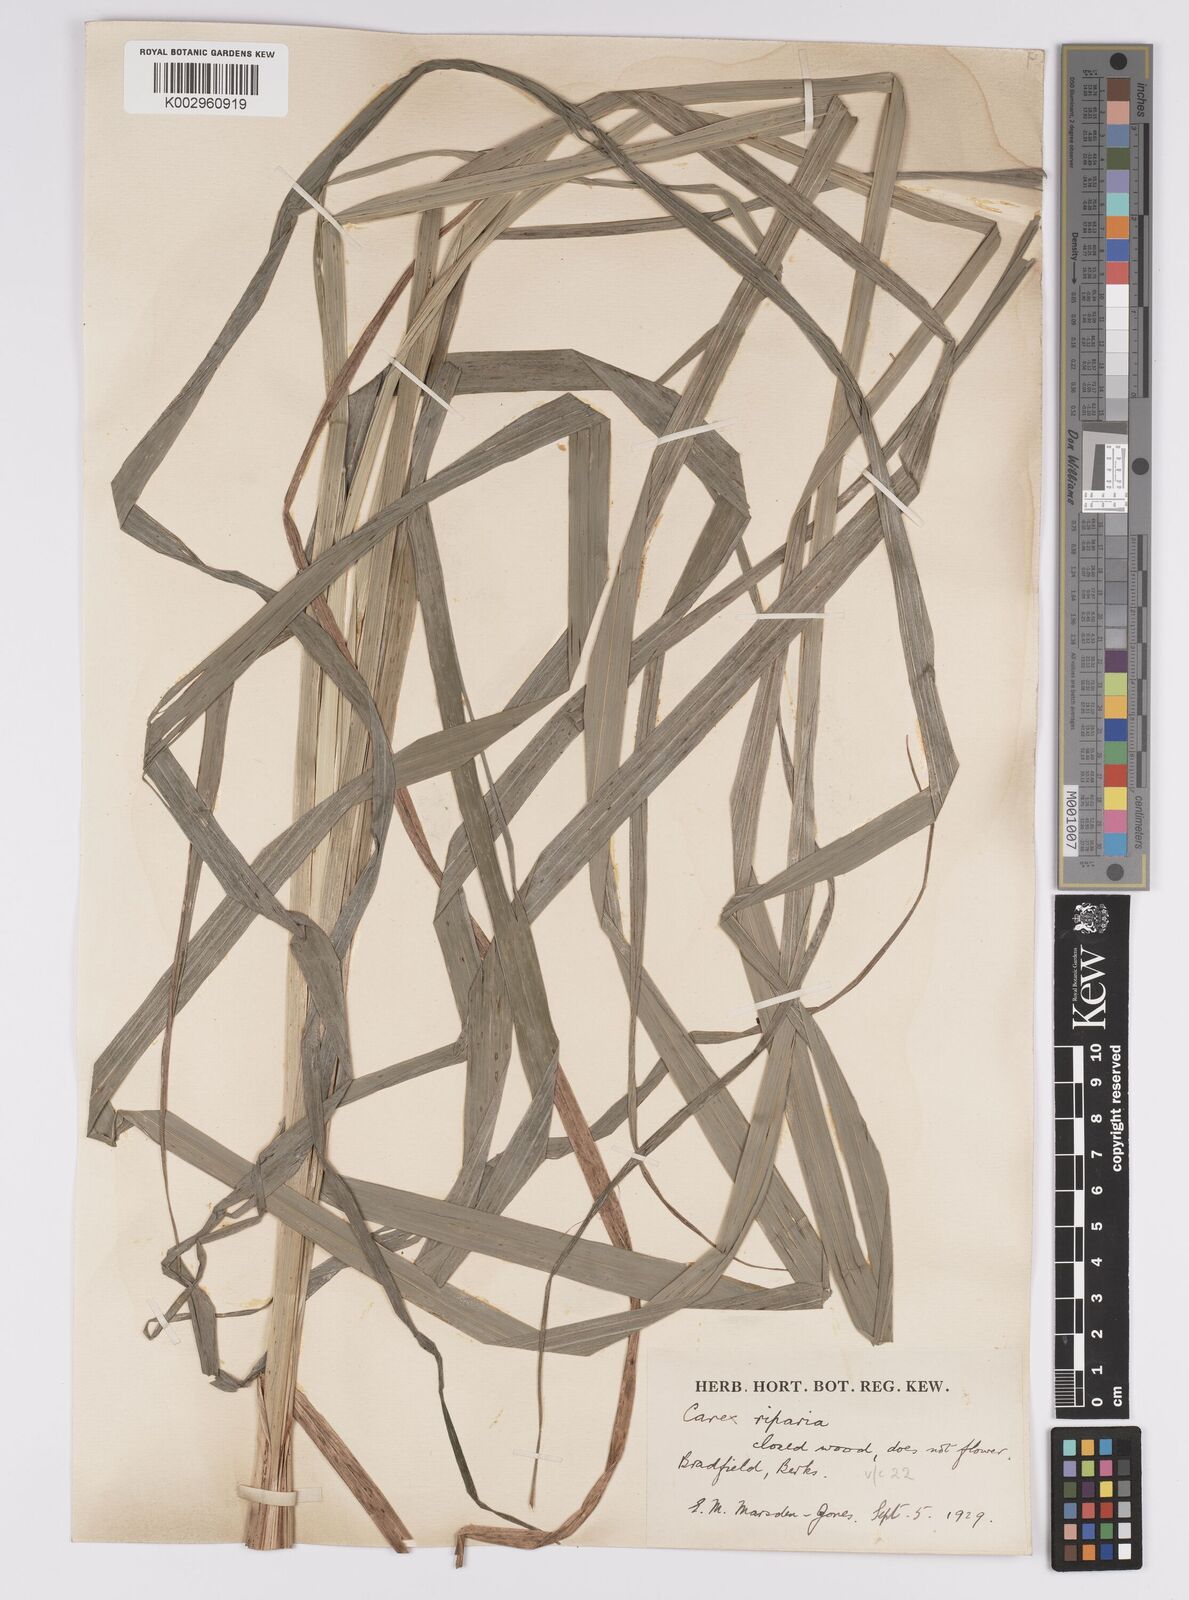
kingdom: Plantae
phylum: Tracheophyta
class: Liliopsida
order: Poales
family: Cyperaceae
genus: Carex
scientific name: Carex riparia
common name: Greater pond-sedge
